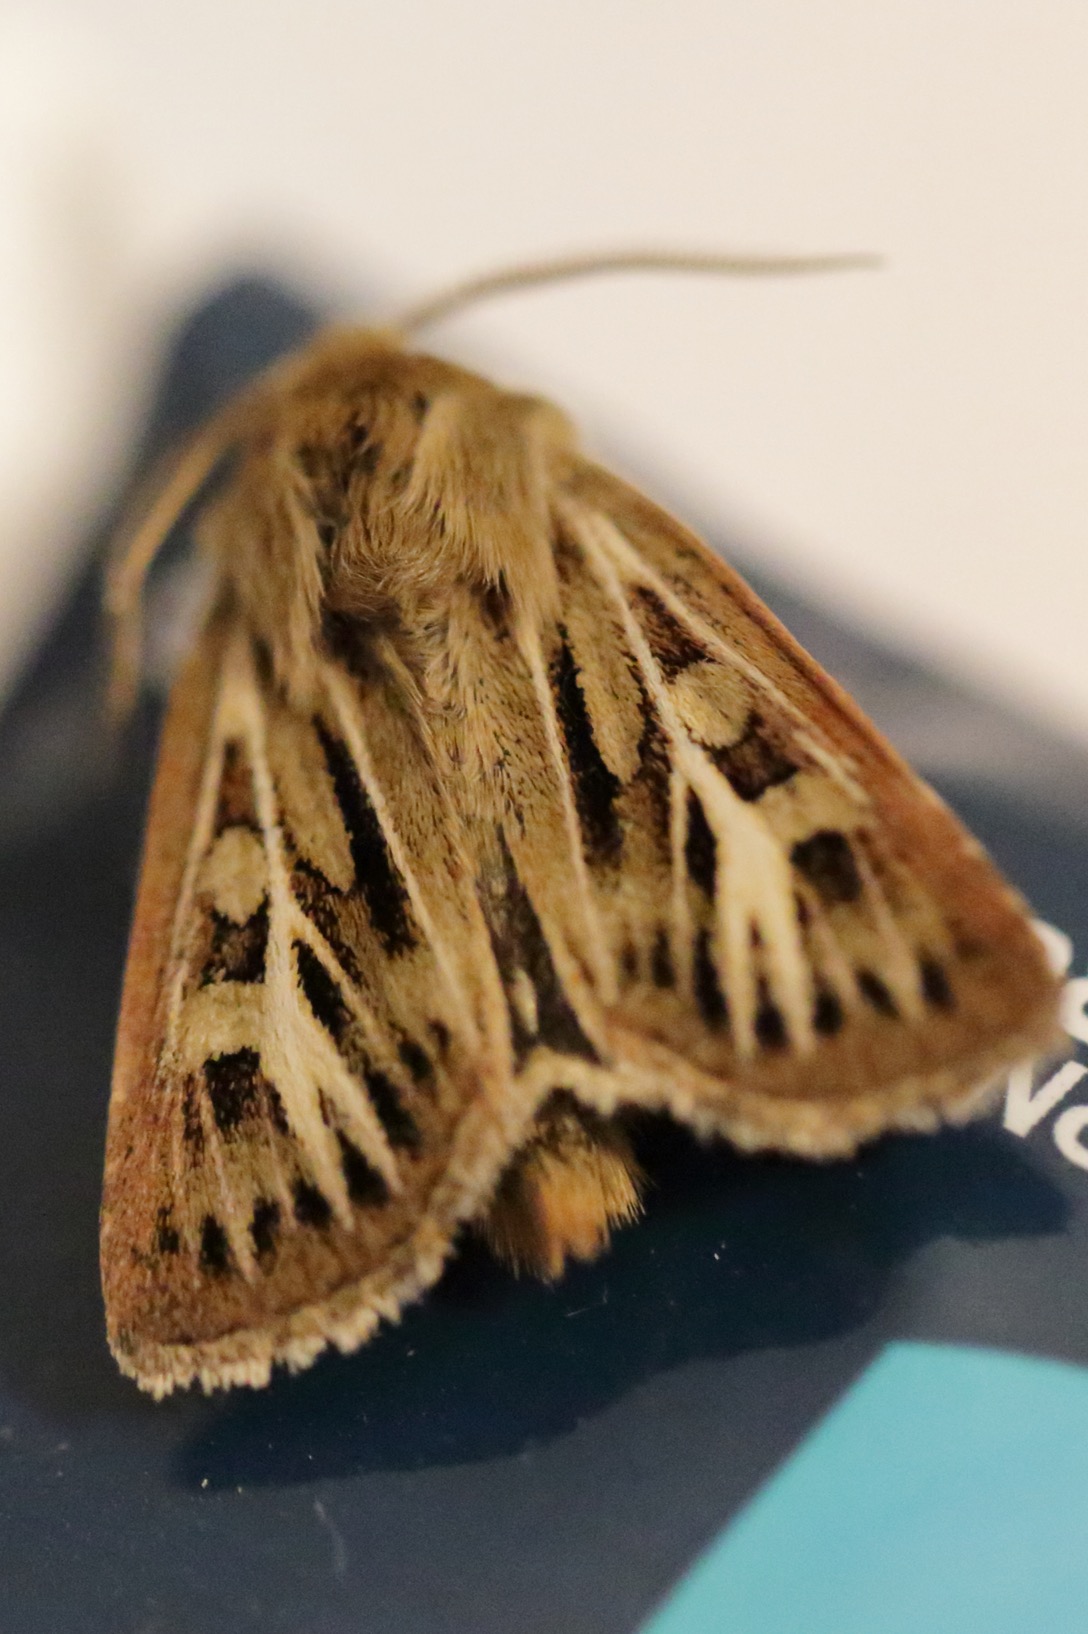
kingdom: Animalia
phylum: Arthropoda
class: Insecta
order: Lepidoptera
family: Noctuidae
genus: Cerapteryx
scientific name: Cerapteryx graminis
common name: Mosebunkeugle
